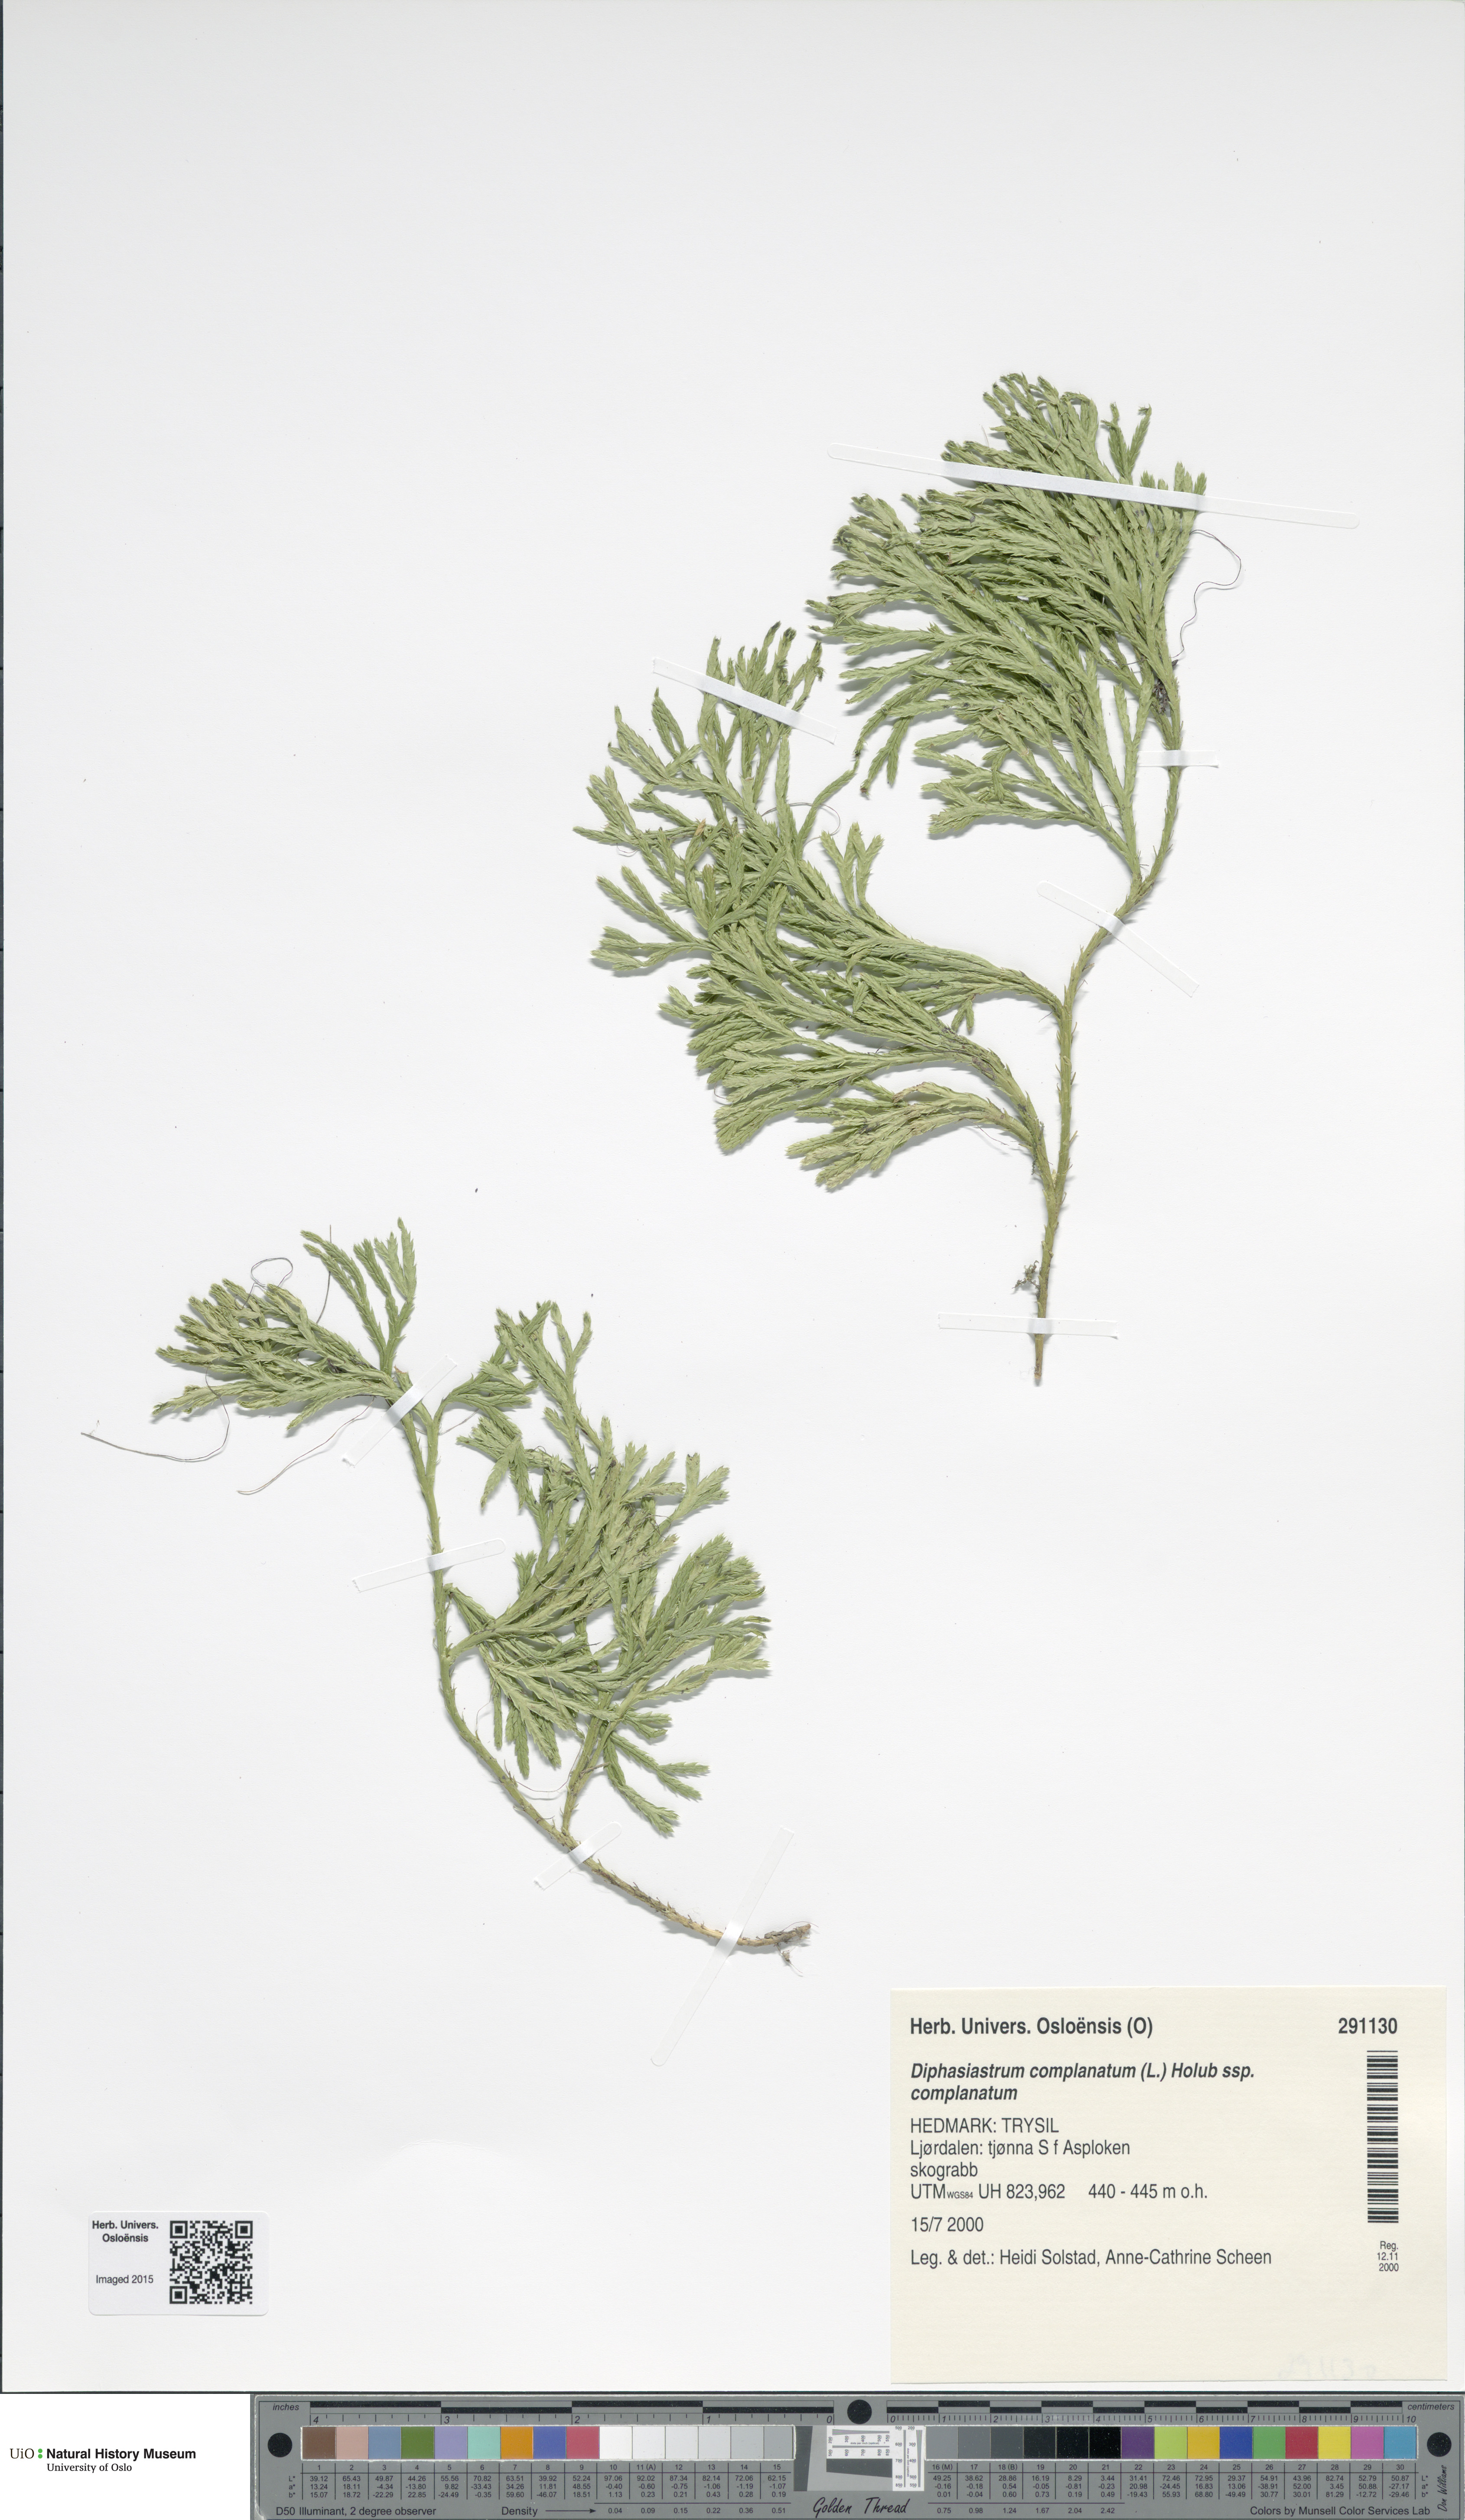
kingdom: Plantae
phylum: Tracheophyta
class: Lycopodiopsida
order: Lycopodiales
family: Lycopodiaceae
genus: Diphasiastrum
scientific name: Diphasiastrum complanatum
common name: Northern running-pine
